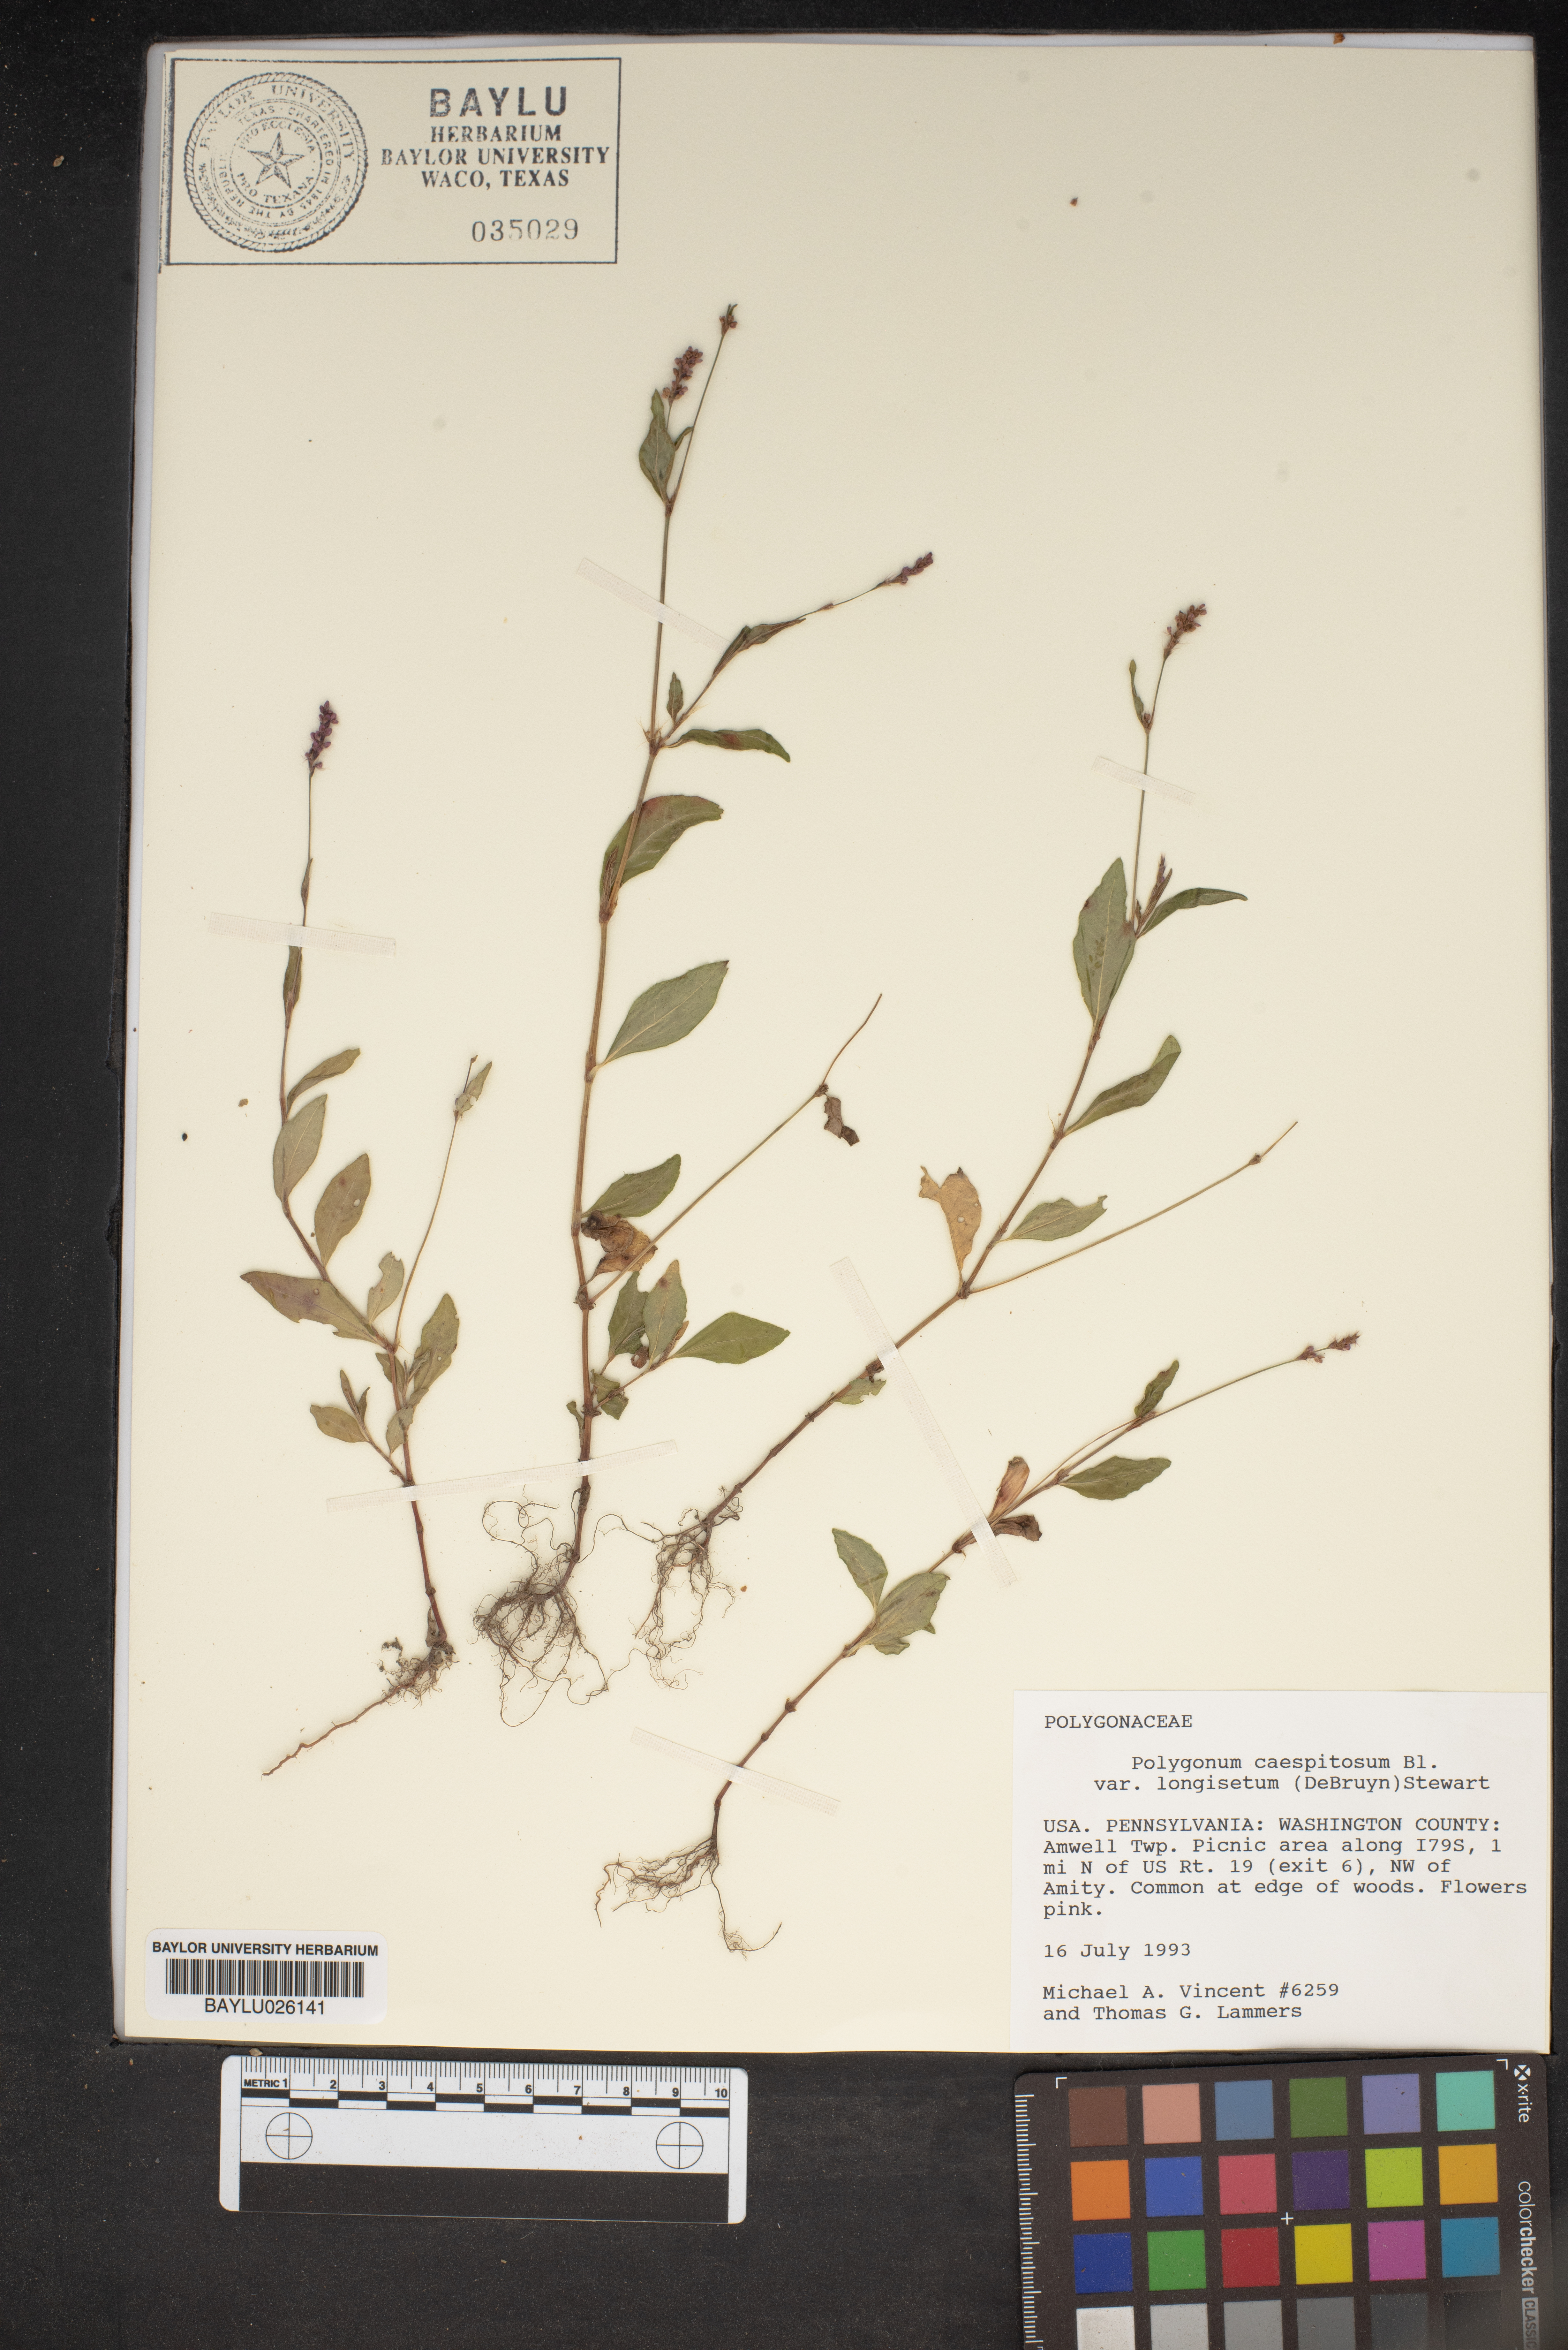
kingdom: Plantae
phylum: Tracheophyta
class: Magnoliopsida
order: Caryophyllales
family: Polygonaceae
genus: Persicaria
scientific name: Persicaria longiseta
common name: Bristly lady's-thumb
